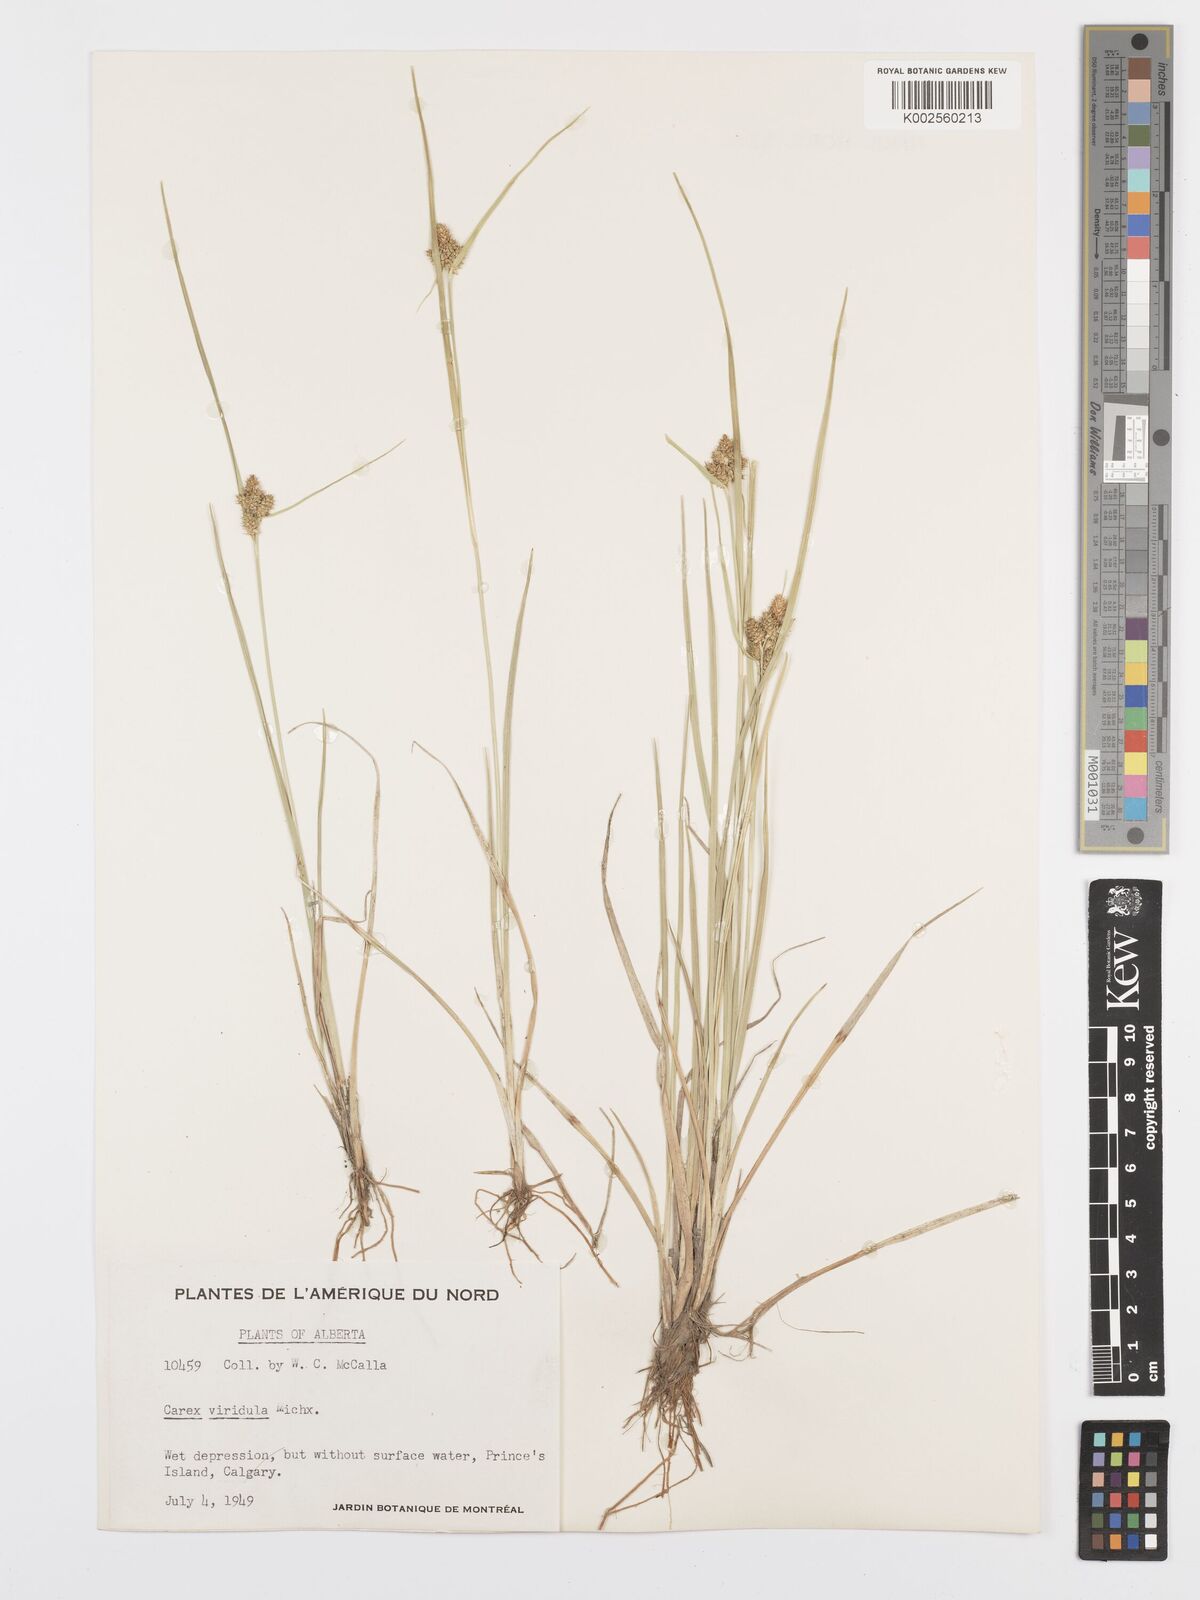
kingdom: Plantae
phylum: Tracheophyta
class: Liliopsida
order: Poales
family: Cyperaceae
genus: Carex
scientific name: Carex oederi
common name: Common & small-fruited yellow-sedge
